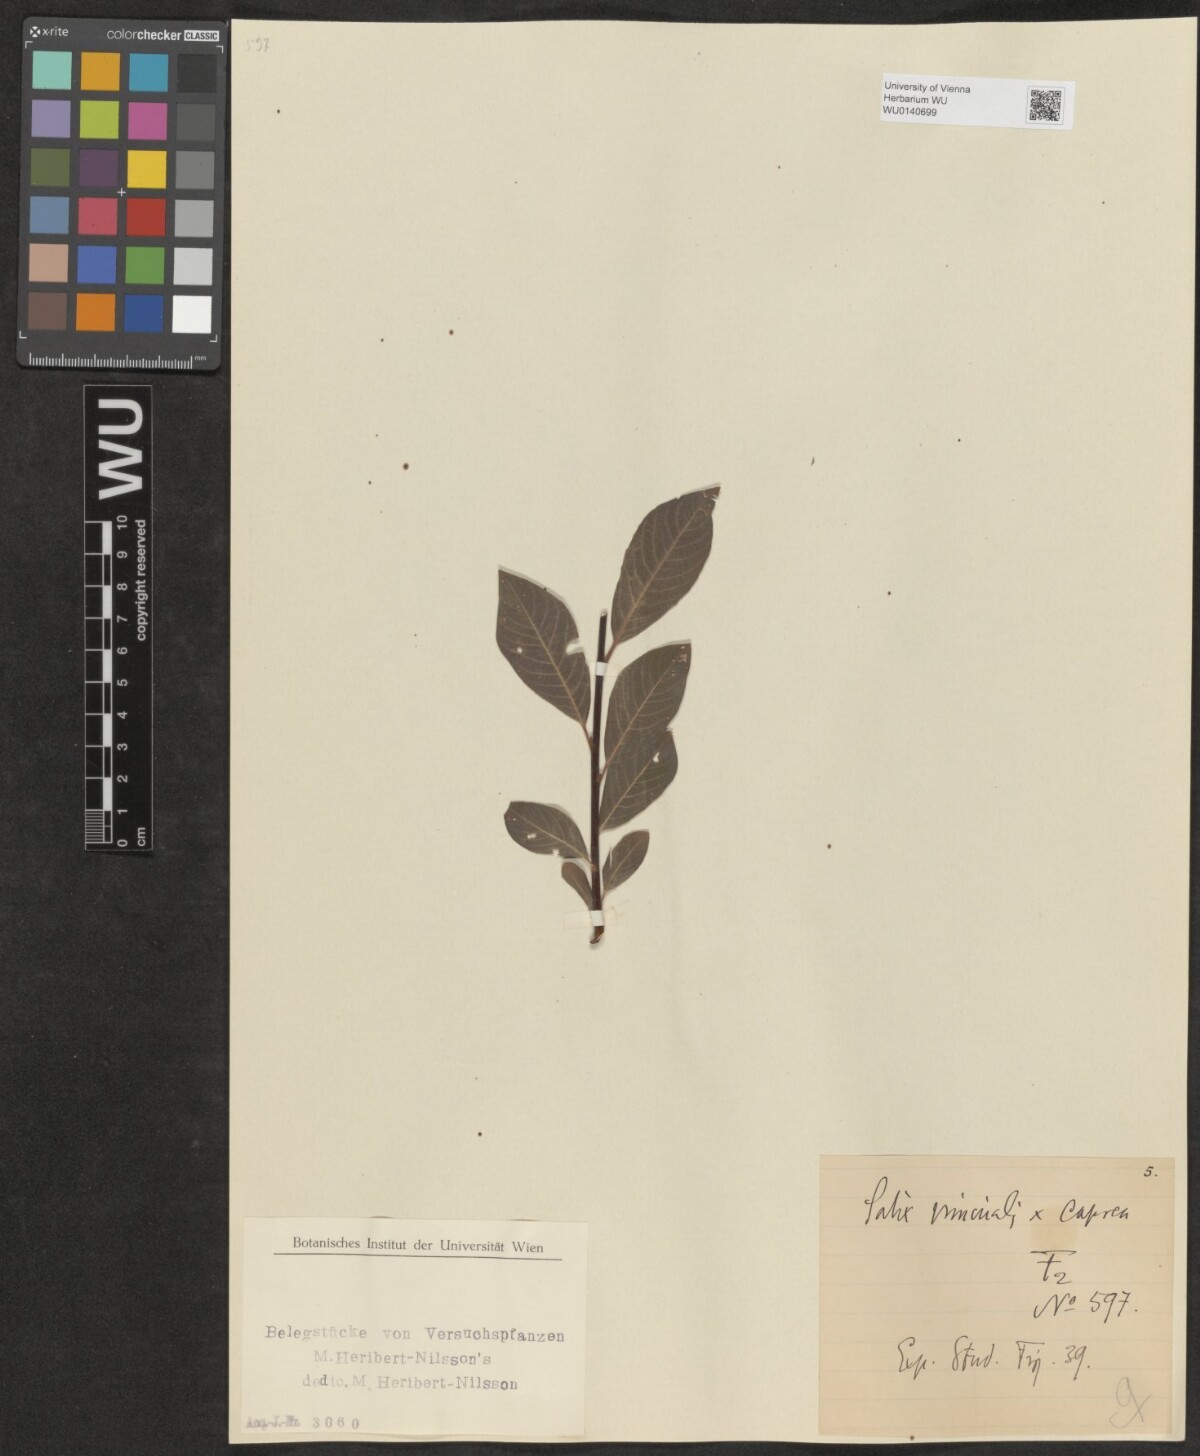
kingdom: Plantae
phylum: Tracheophyta
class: Magnoliopsida
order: Malpighiales
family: Salicaceae
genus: Salix
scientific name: Salix
